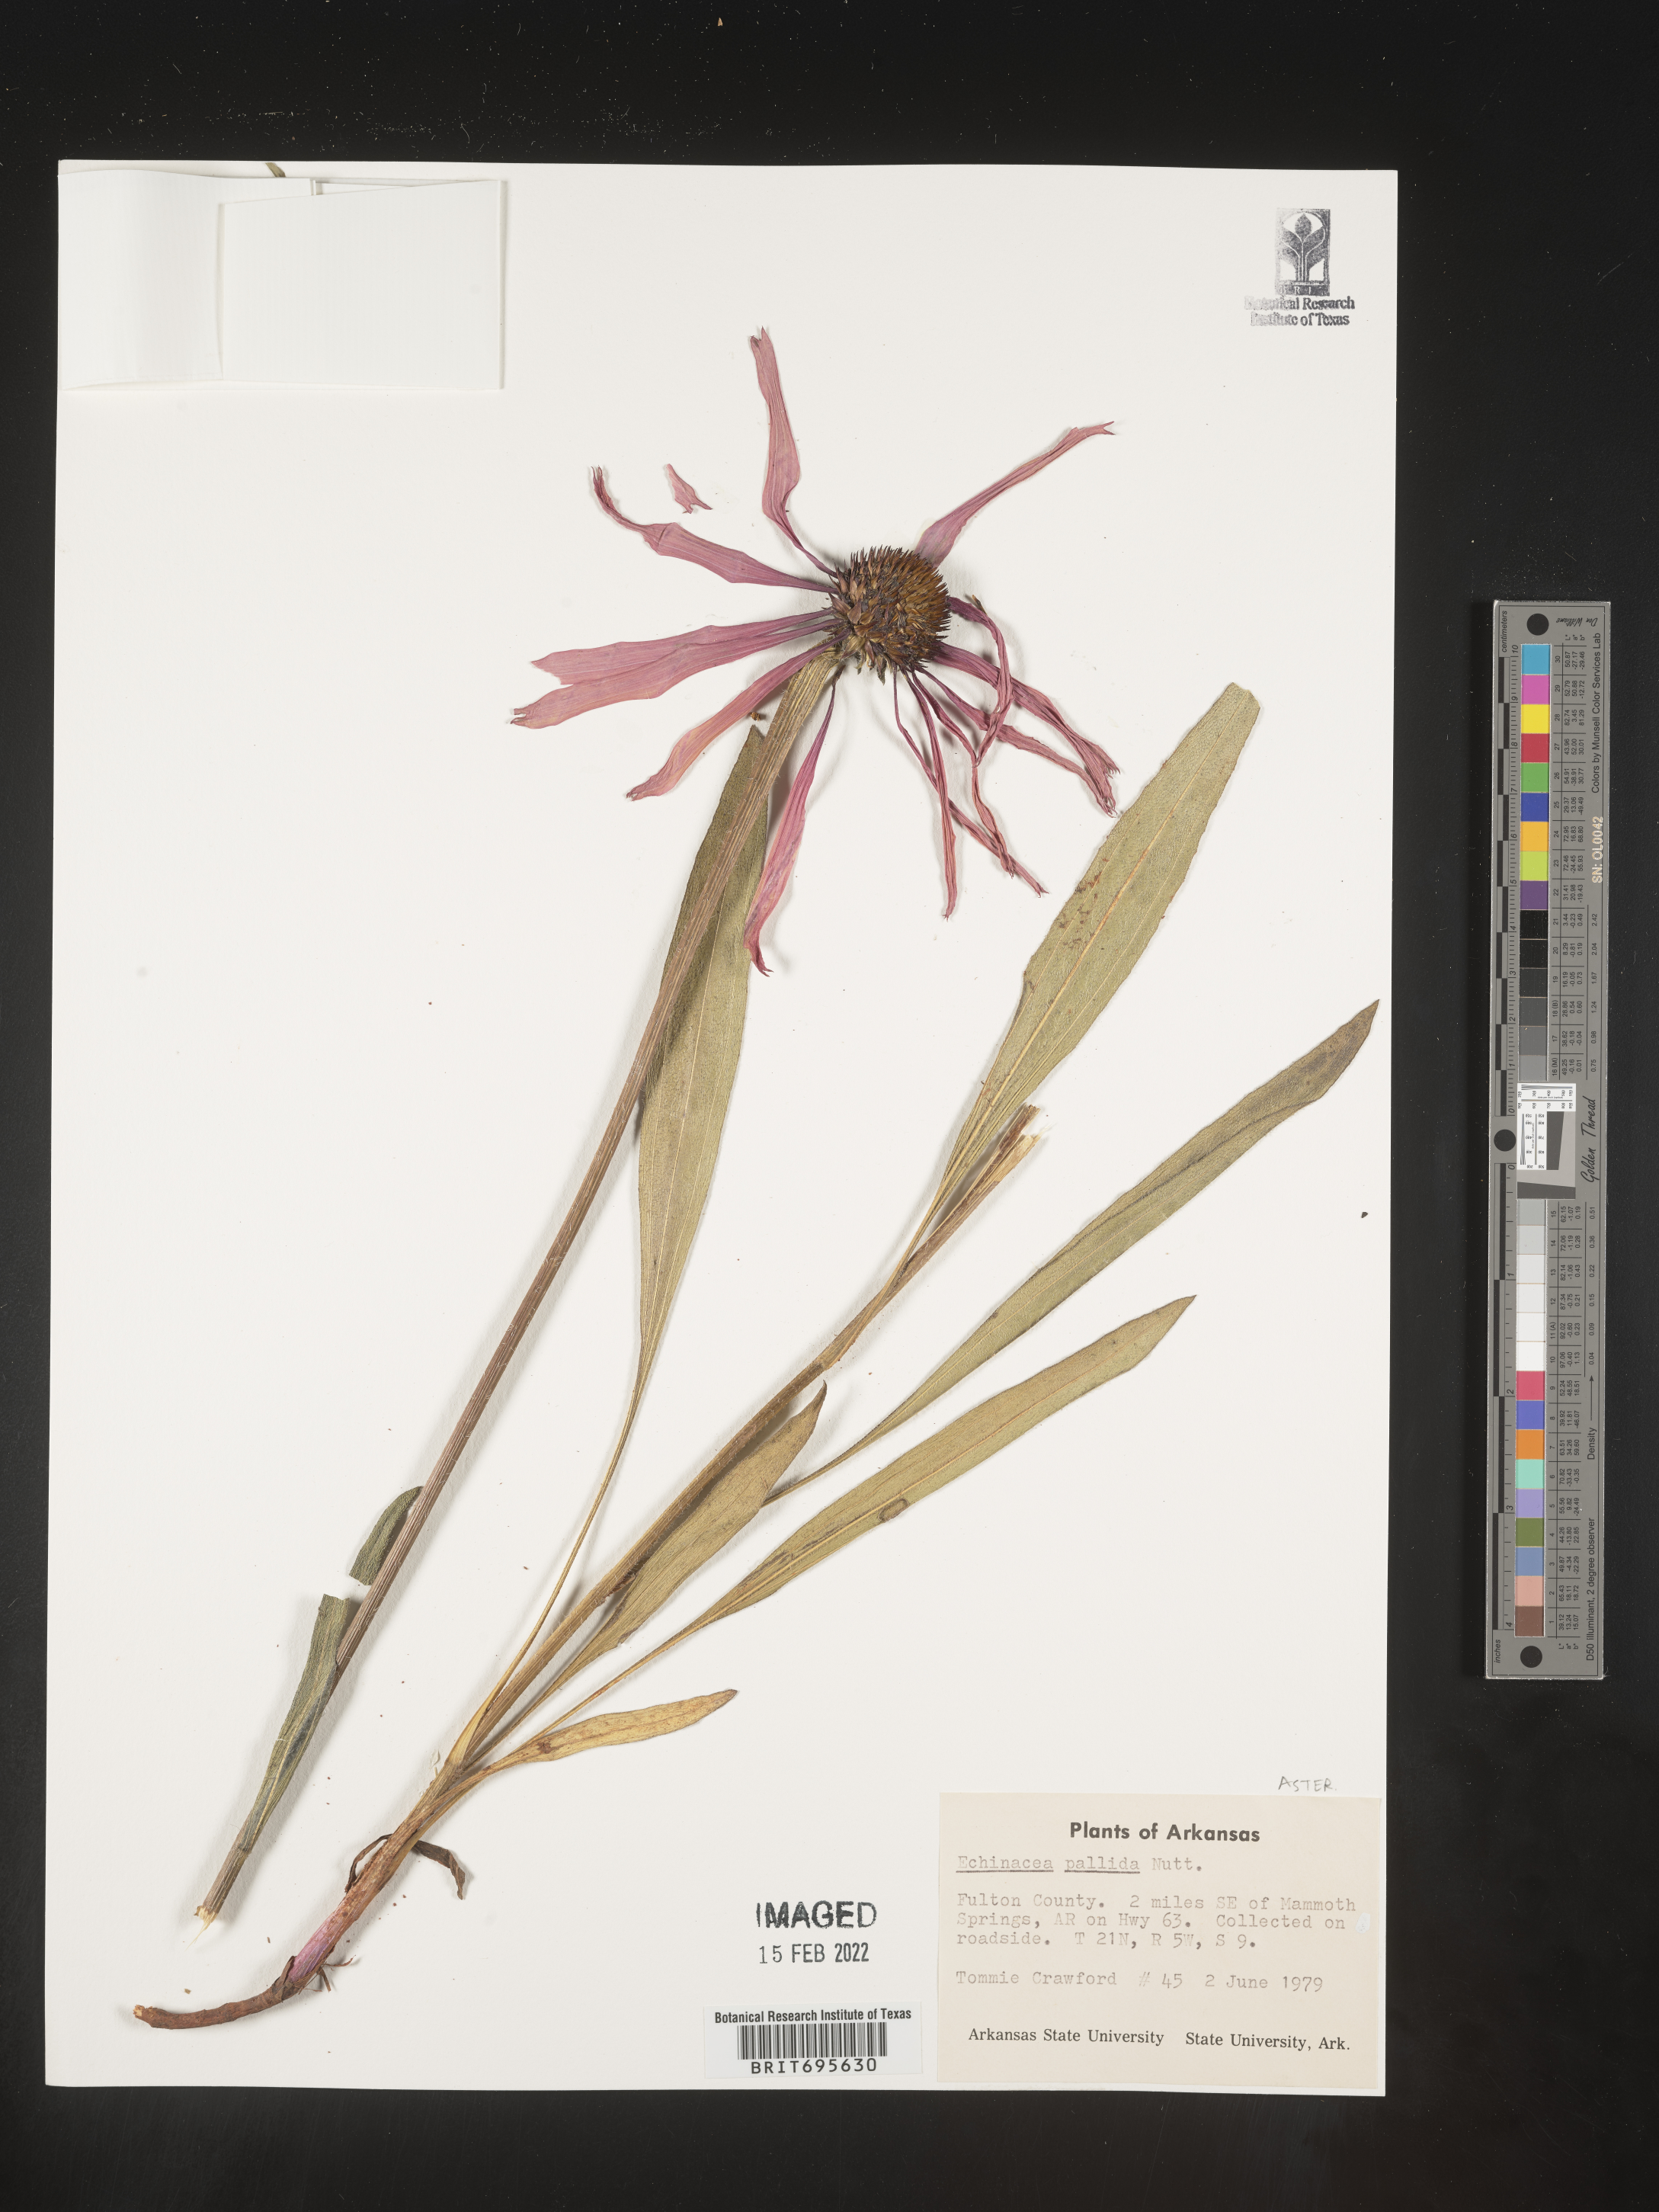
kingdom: Plantae
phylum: Tracheophyta
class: Magnoliopsida
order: Asterales
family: Asteraceae
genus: Echinacea
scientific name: Echinacea pallida
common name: Pale echinacea
